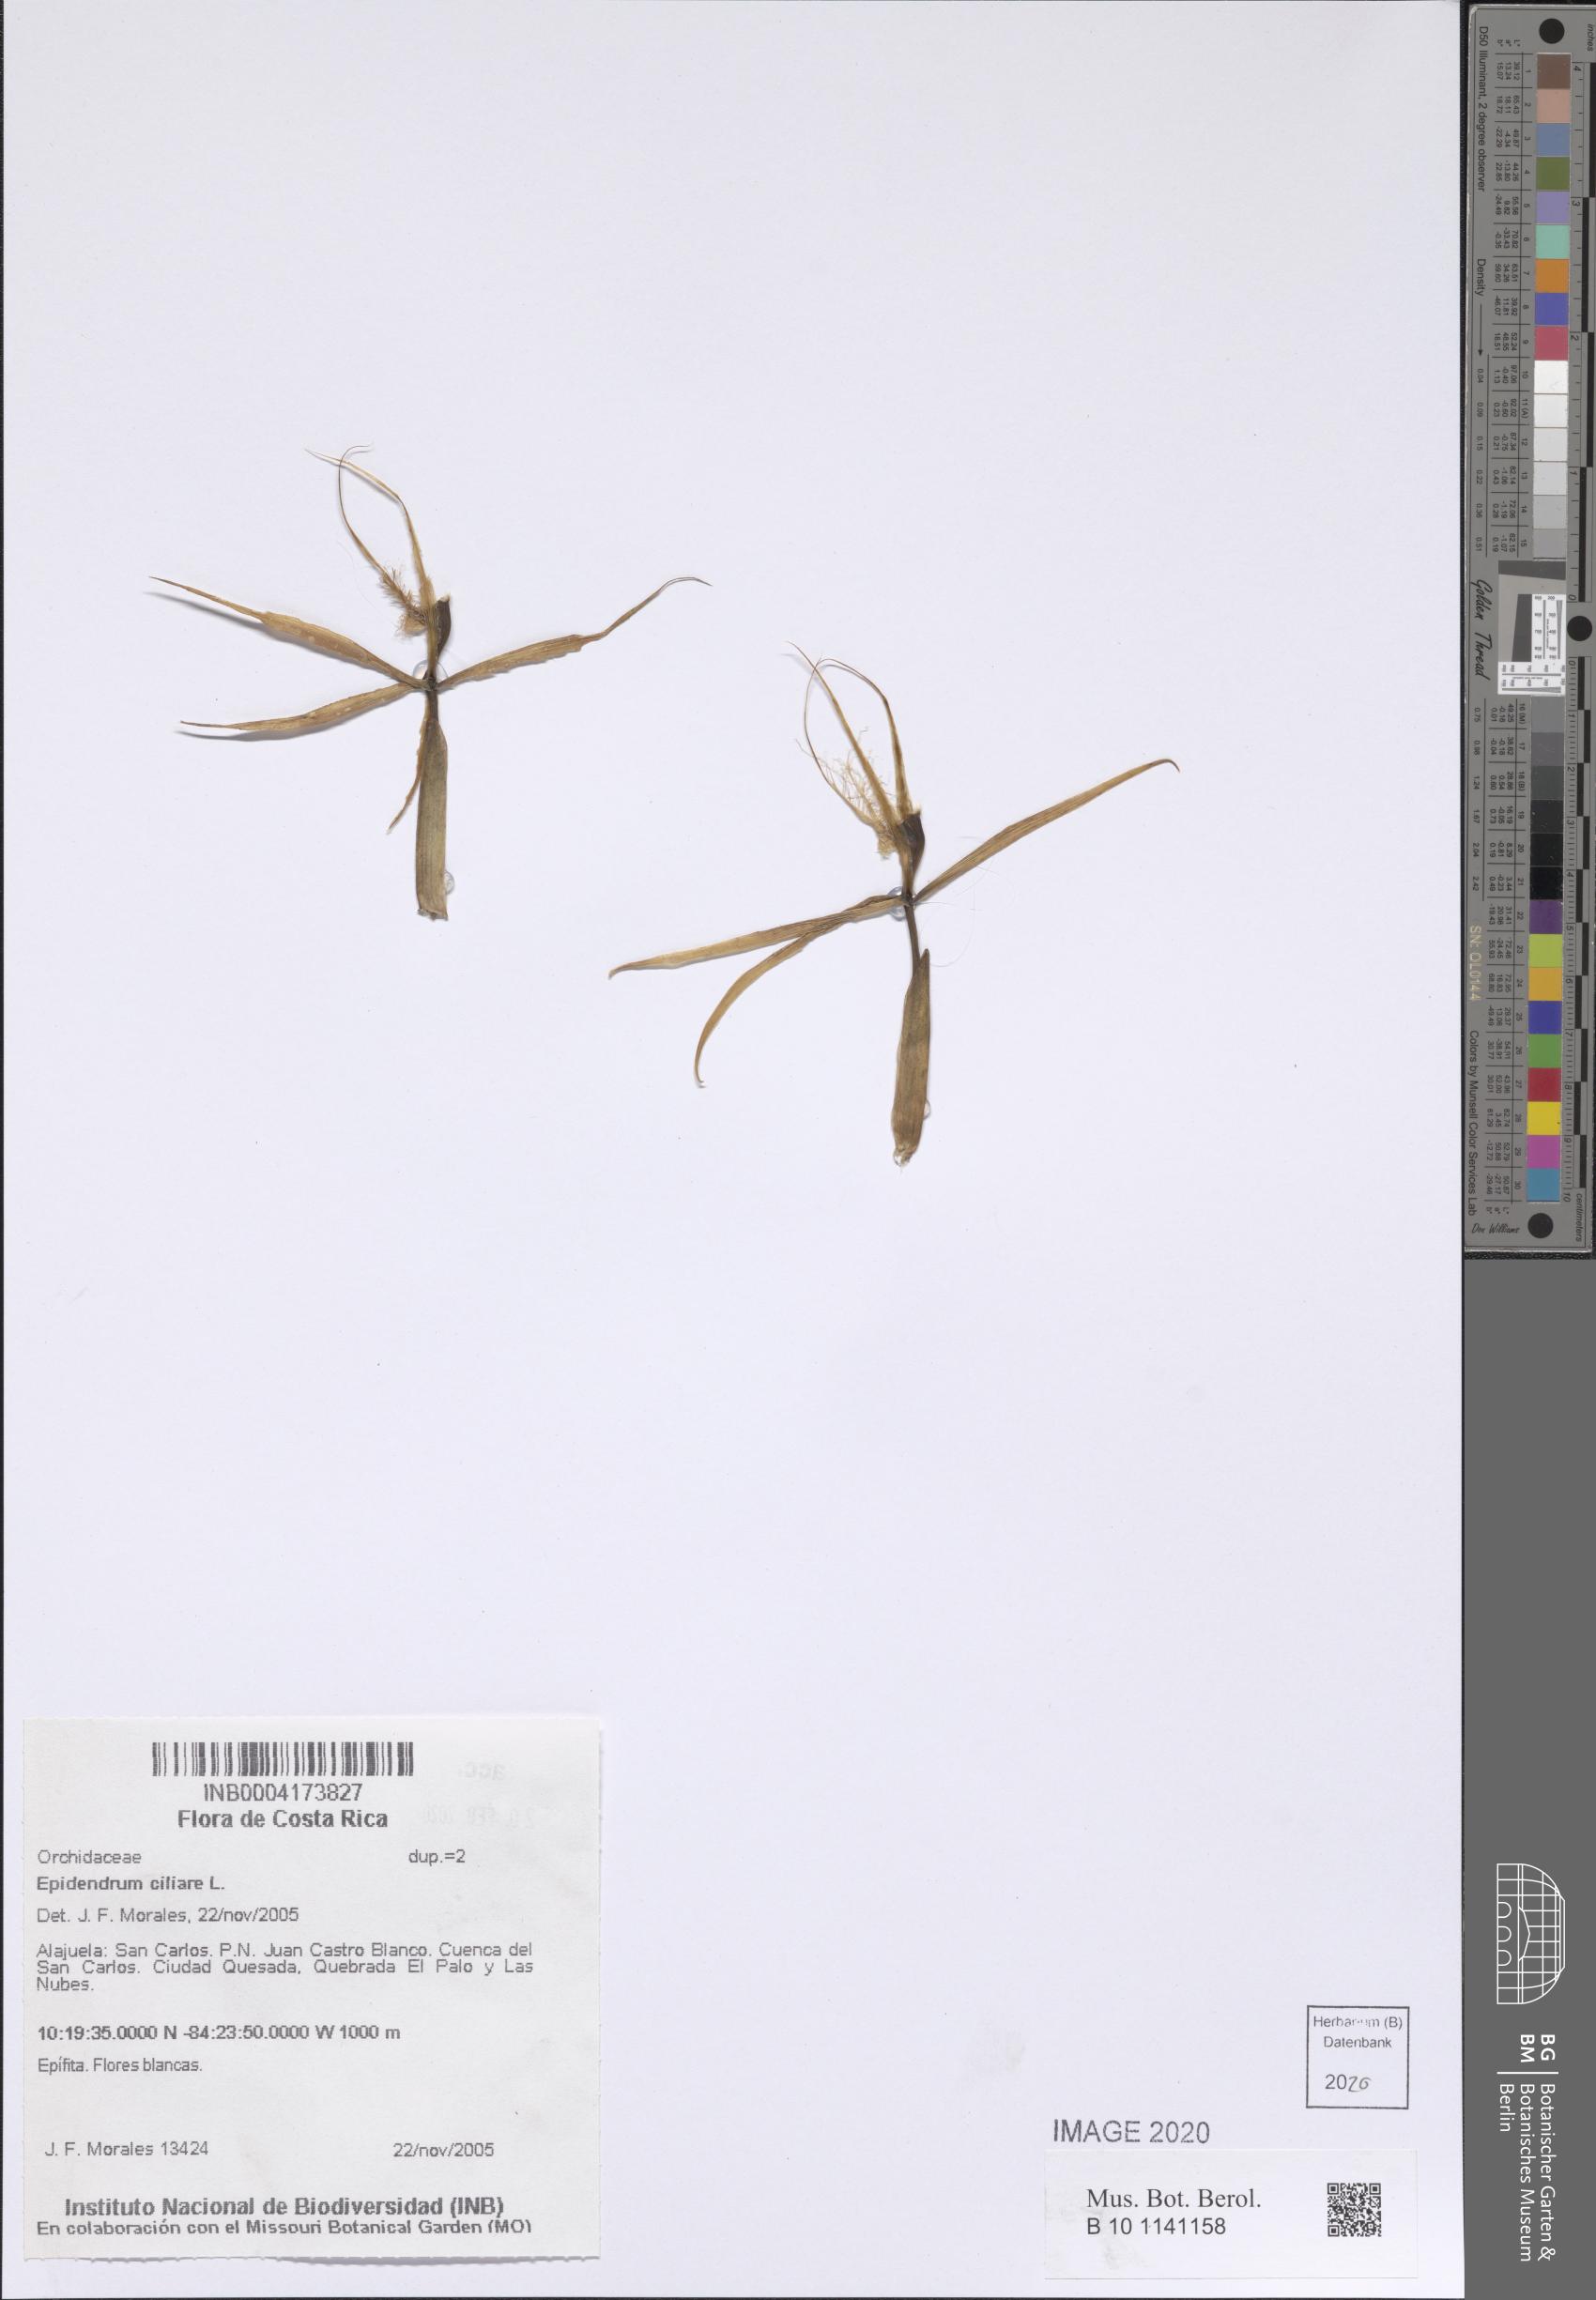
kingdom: Plantae
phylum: Tracheophyta
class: Liliopsida
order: Asparagales
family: Orchidaceae
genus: Epidendrum
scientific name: Epidendrum ciliare
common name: Eyelash orchid
